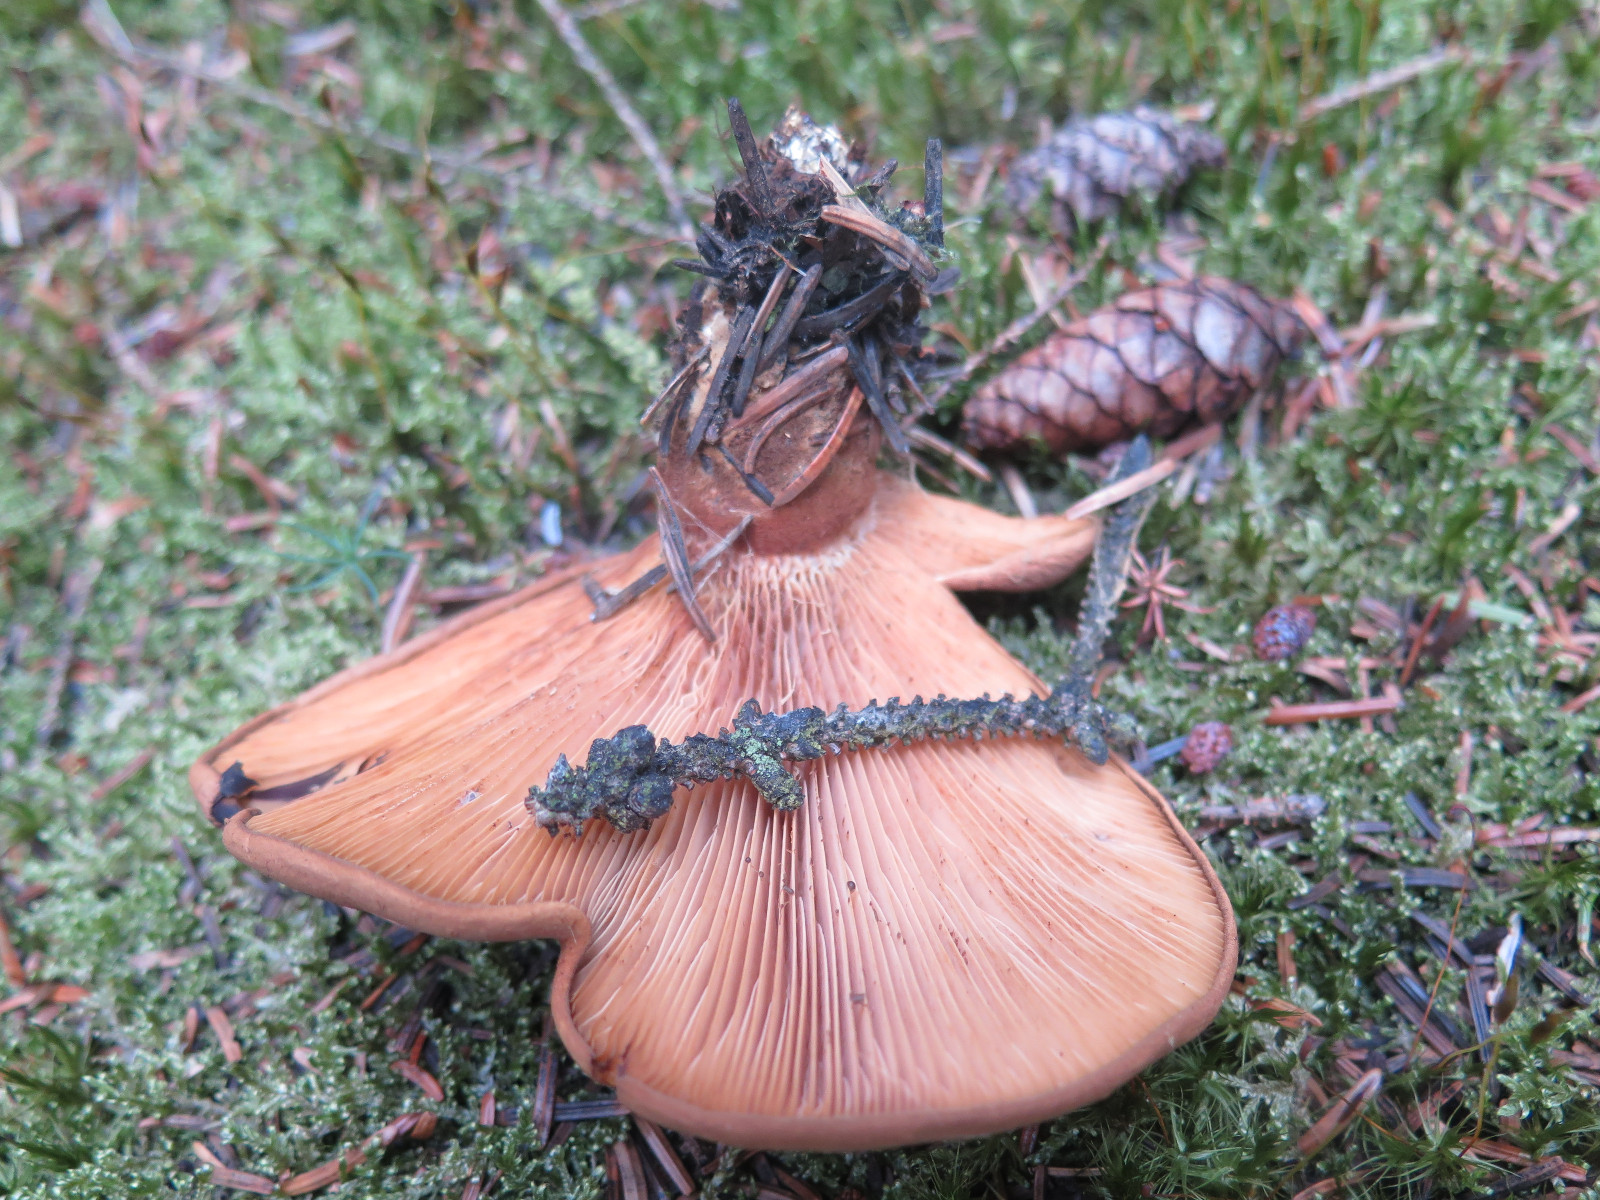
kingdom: Fungi
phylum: Basidiomycota
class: Agaricomycetes
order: Boletales
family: Tapinellaceae
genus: Tapinella
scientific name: Tapinella atrotomentosa
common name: sortfiltet viftesvamp
